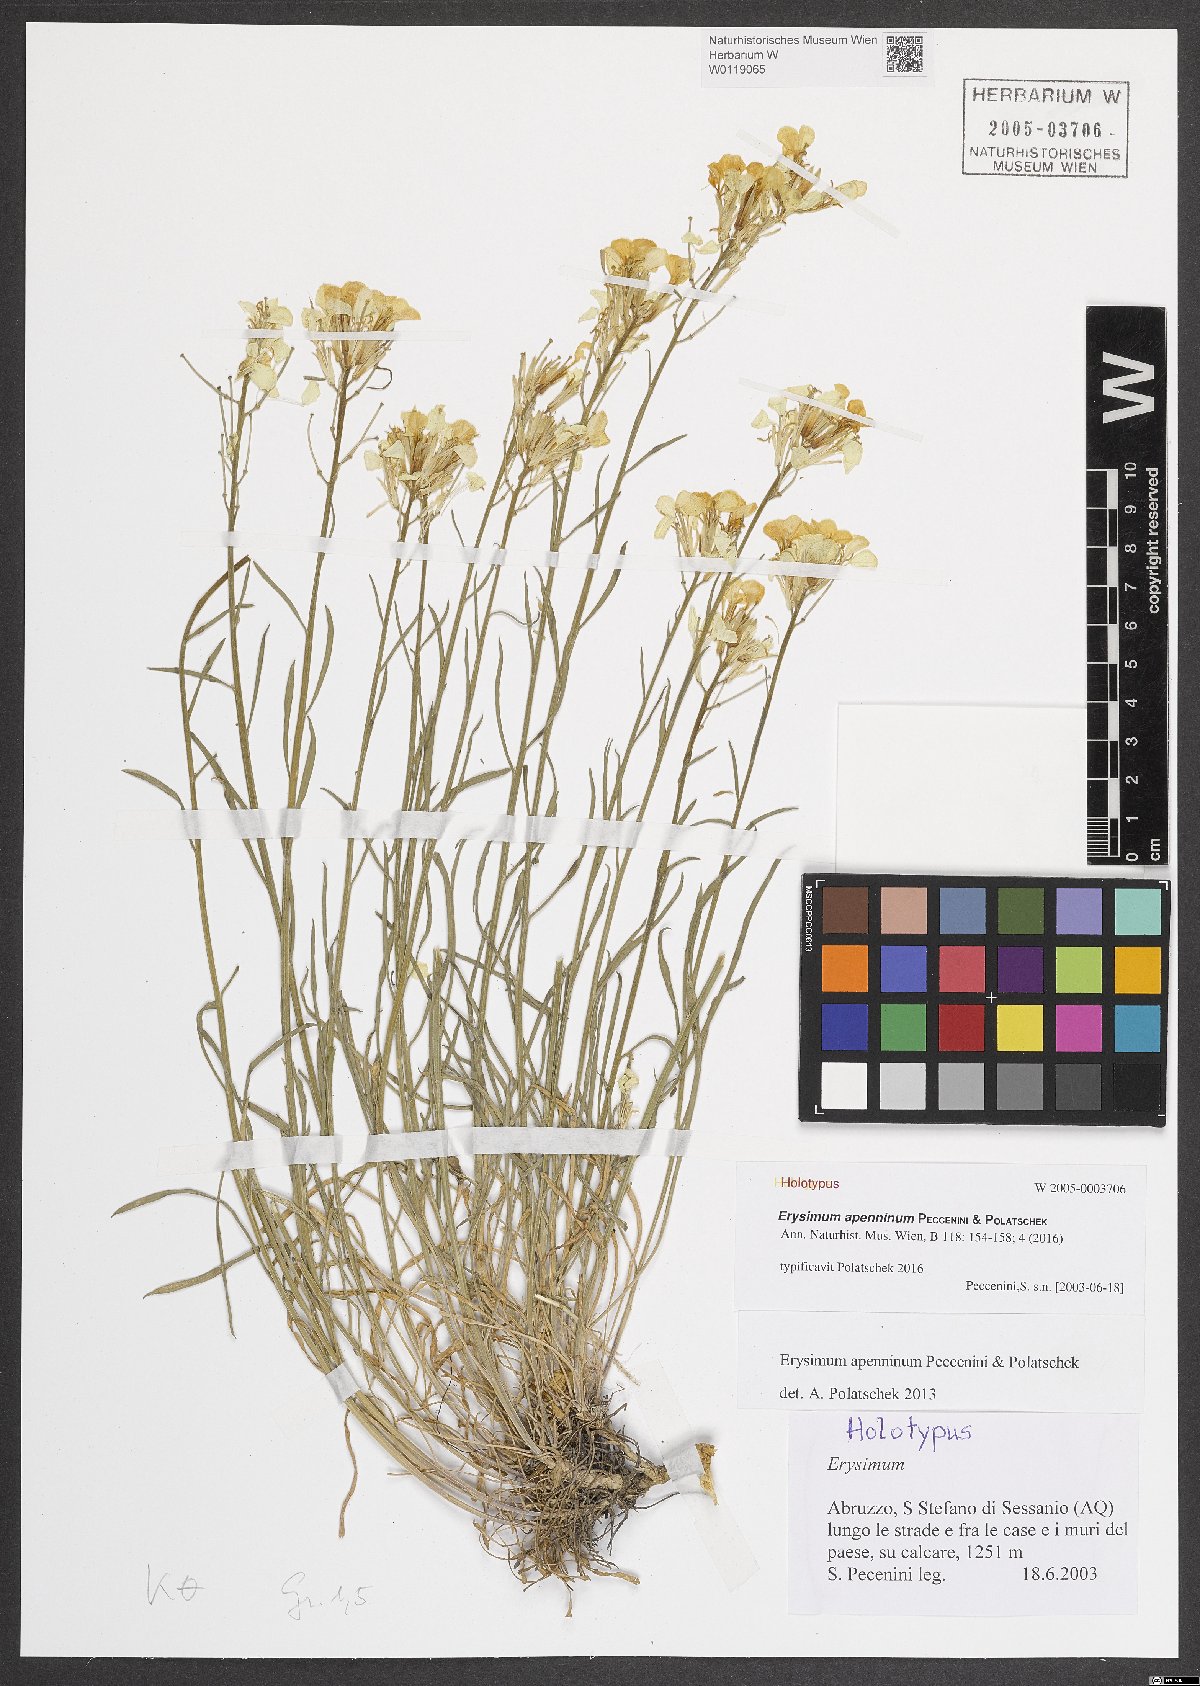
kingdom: Plantae
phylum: Tracheophyta
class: Magnoliopsida
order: Brassicales
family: Brassicaceae
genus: Erysimum
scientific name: Erysimum apenninum
